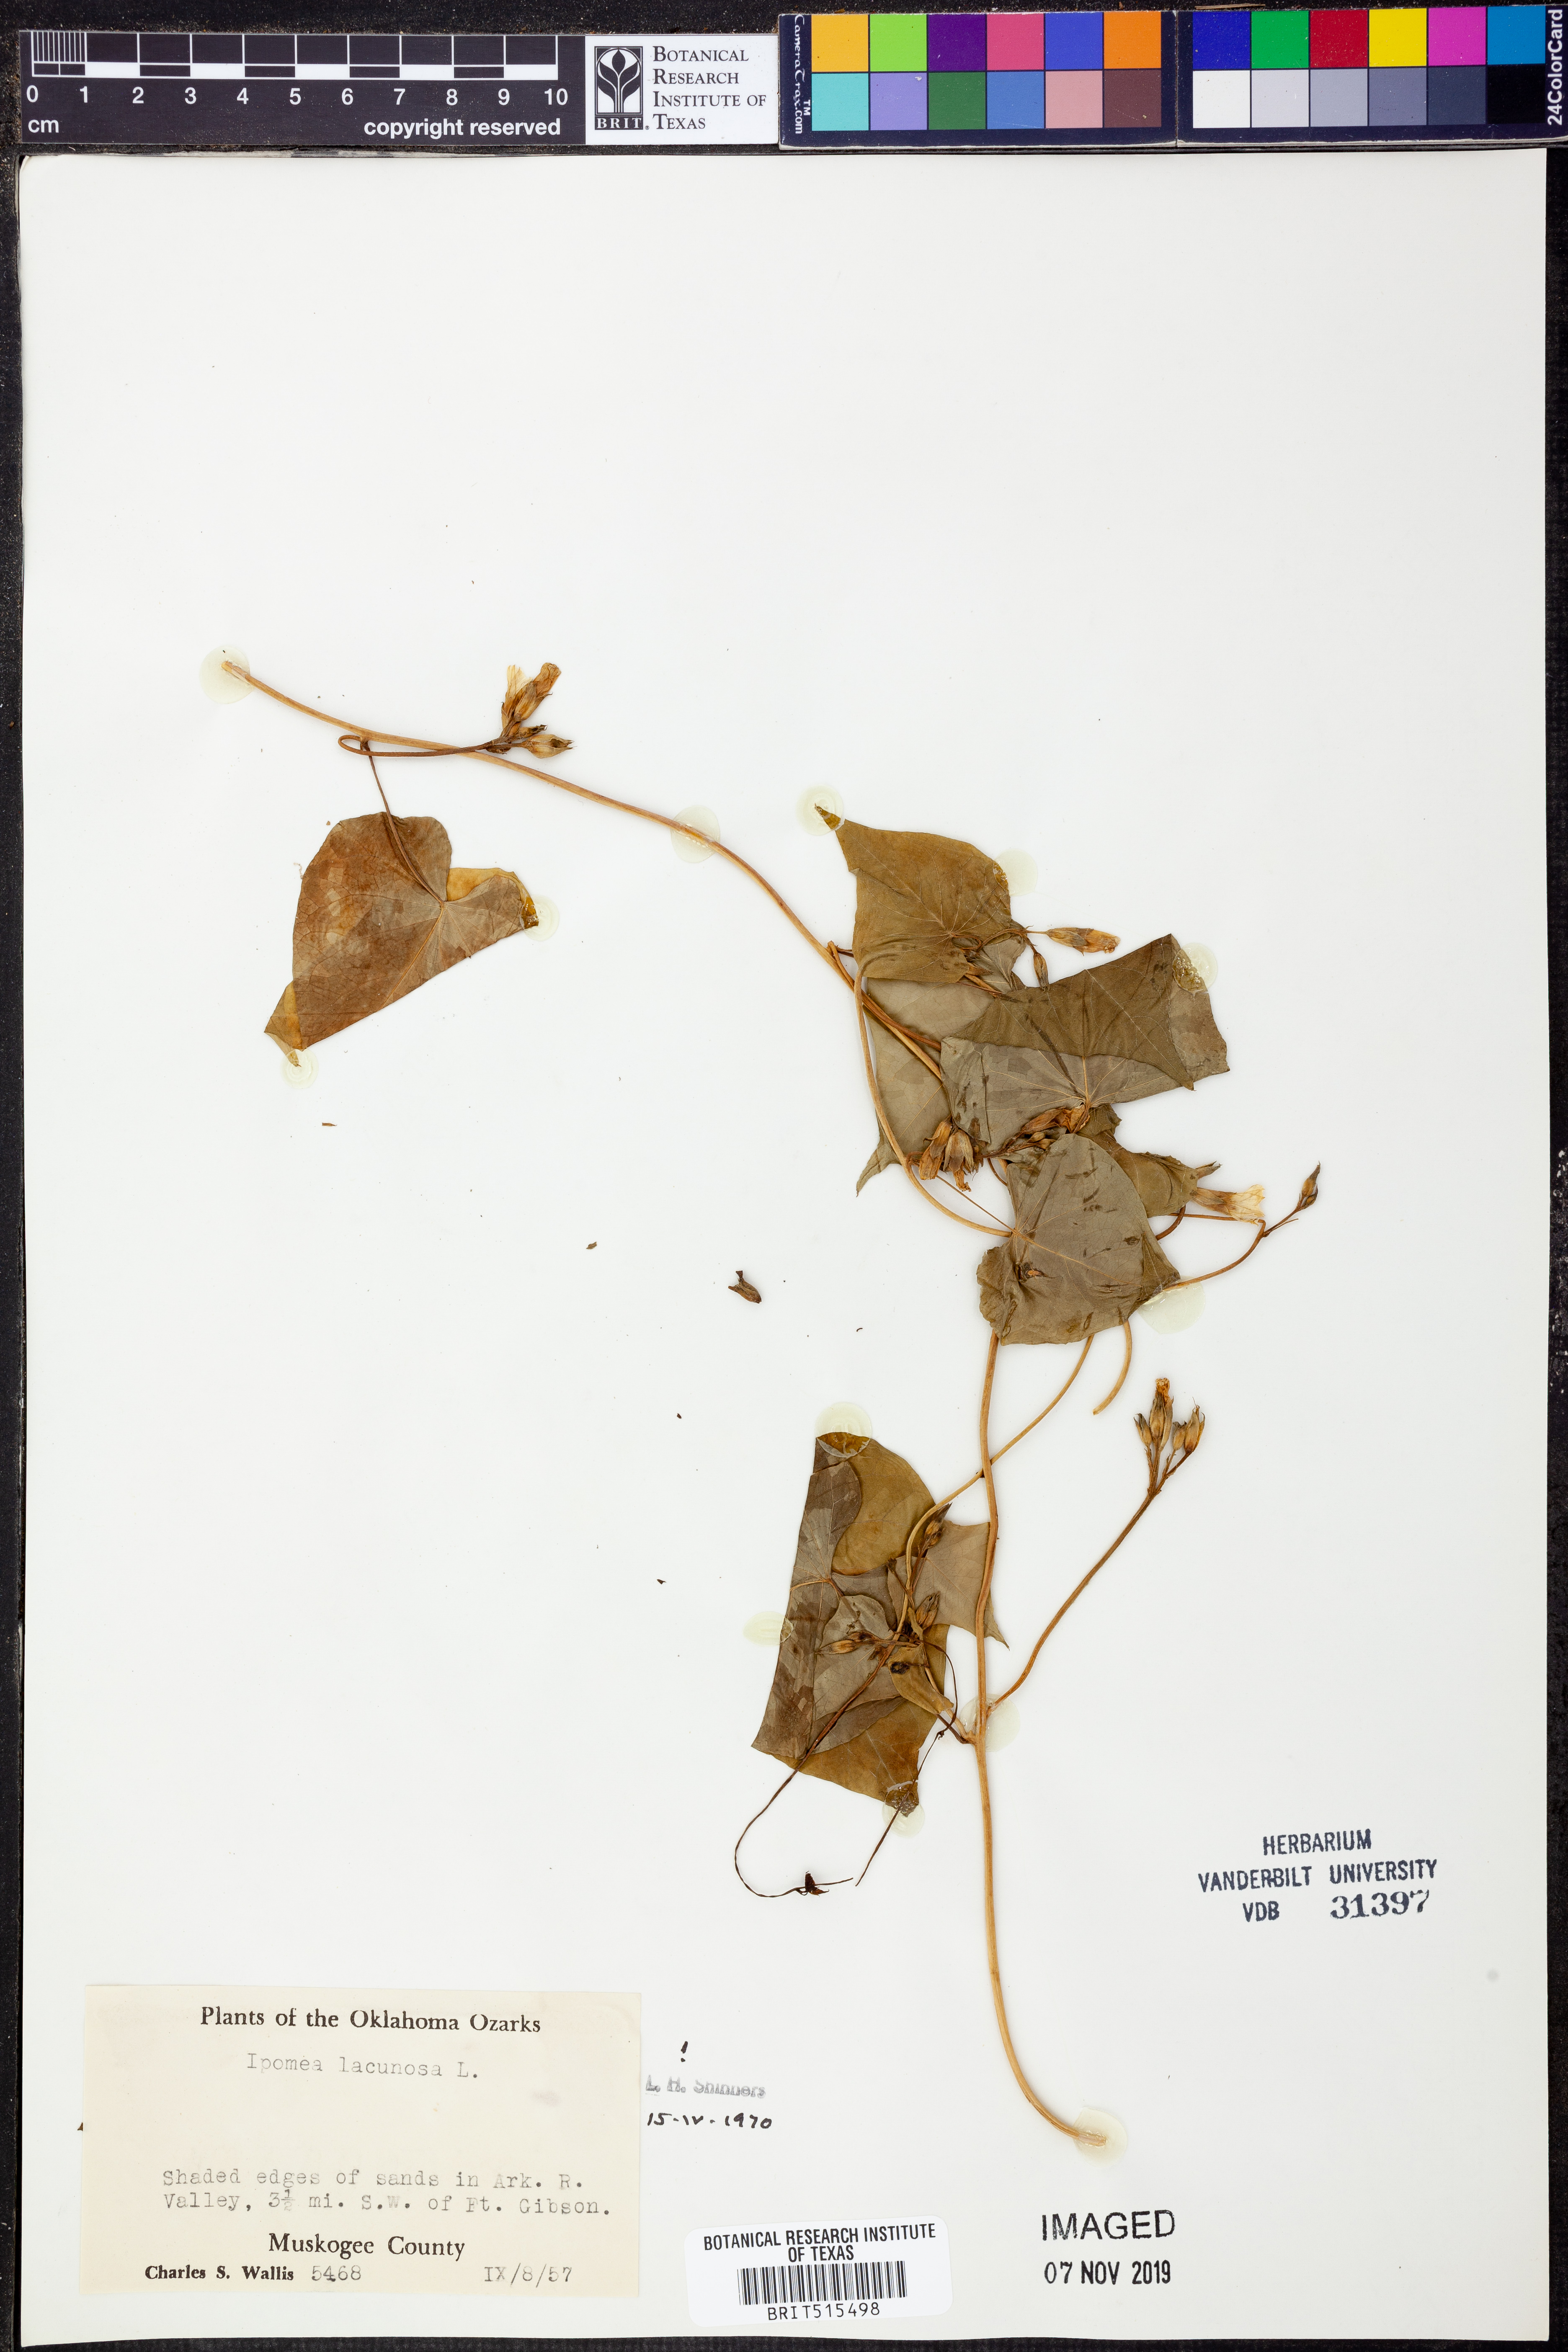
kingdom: Plantae
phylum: Tracheophyta
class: Magnoliopsida
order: Solanales
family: Convolvulaceae
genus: Ipomoea
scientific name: Ipomoea lacunosa
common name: White morning-glory
